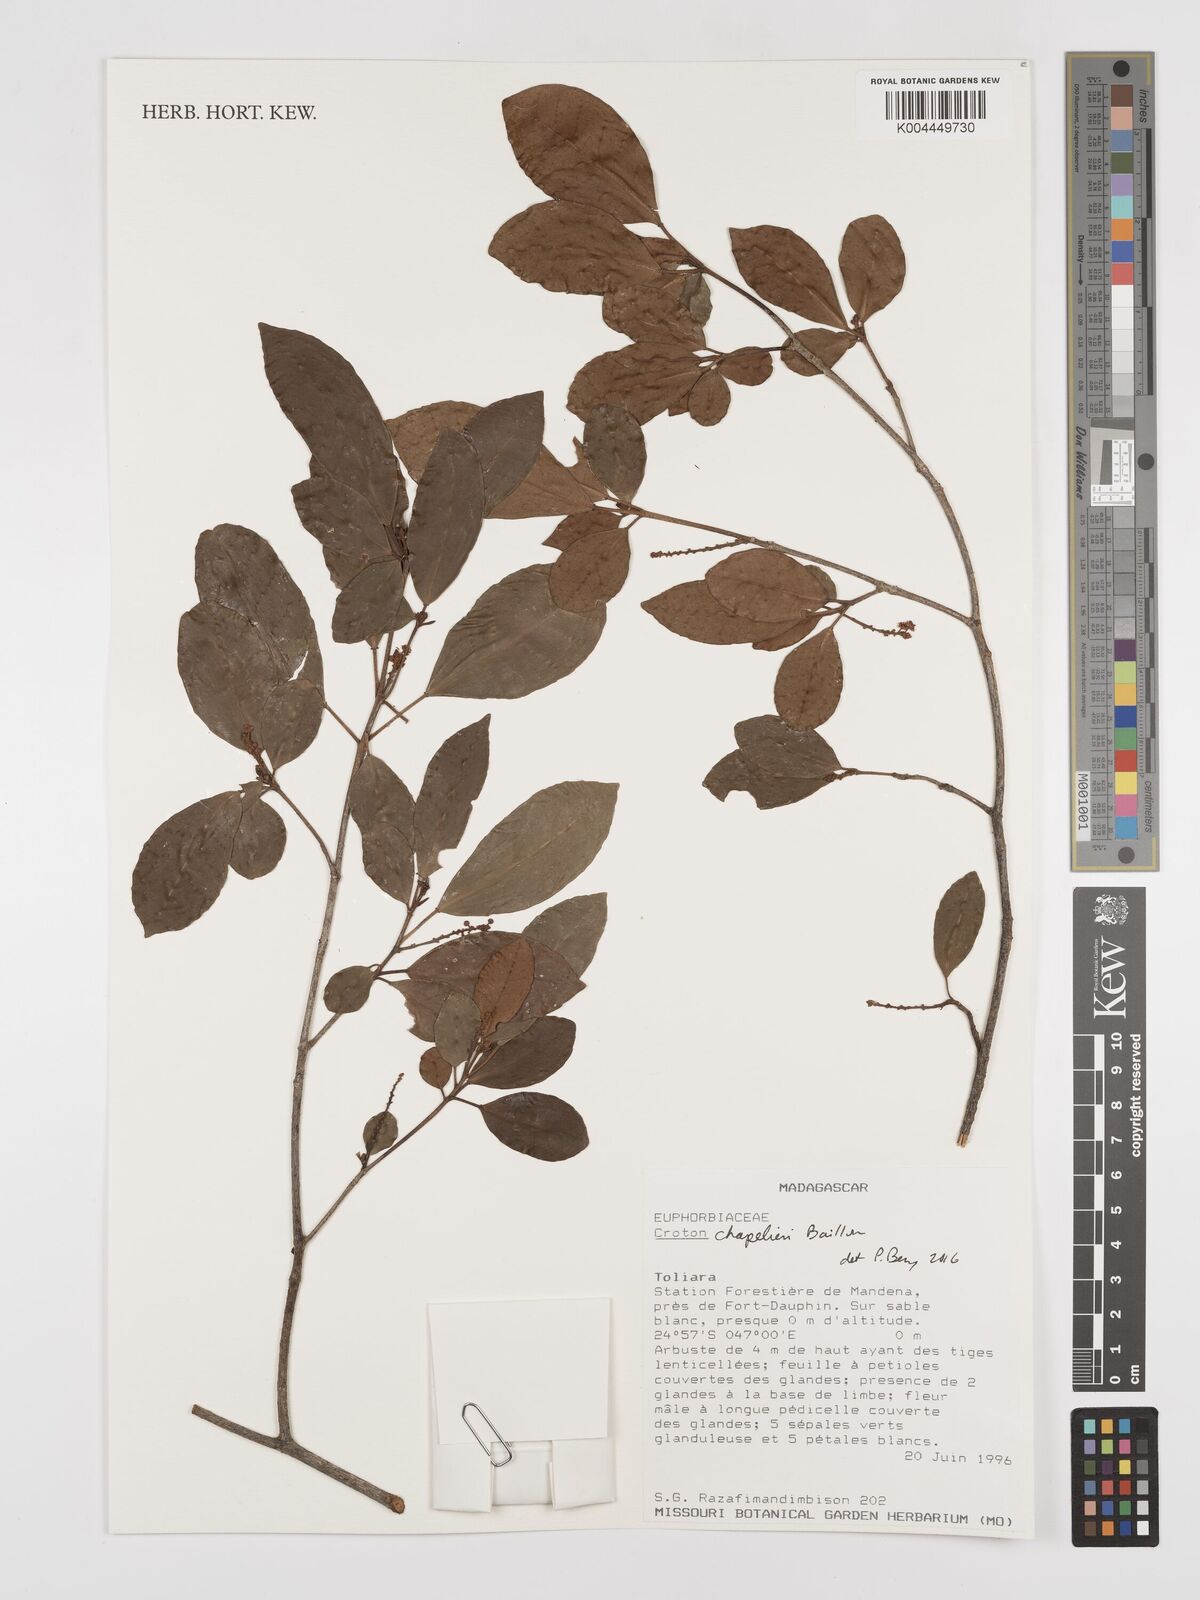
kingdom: Plantae
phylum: Tracheophyta
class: Magnoliopsida
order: Malpighiales
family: Euphorbiaceae
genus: Croton
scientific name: Croton chapelieri
